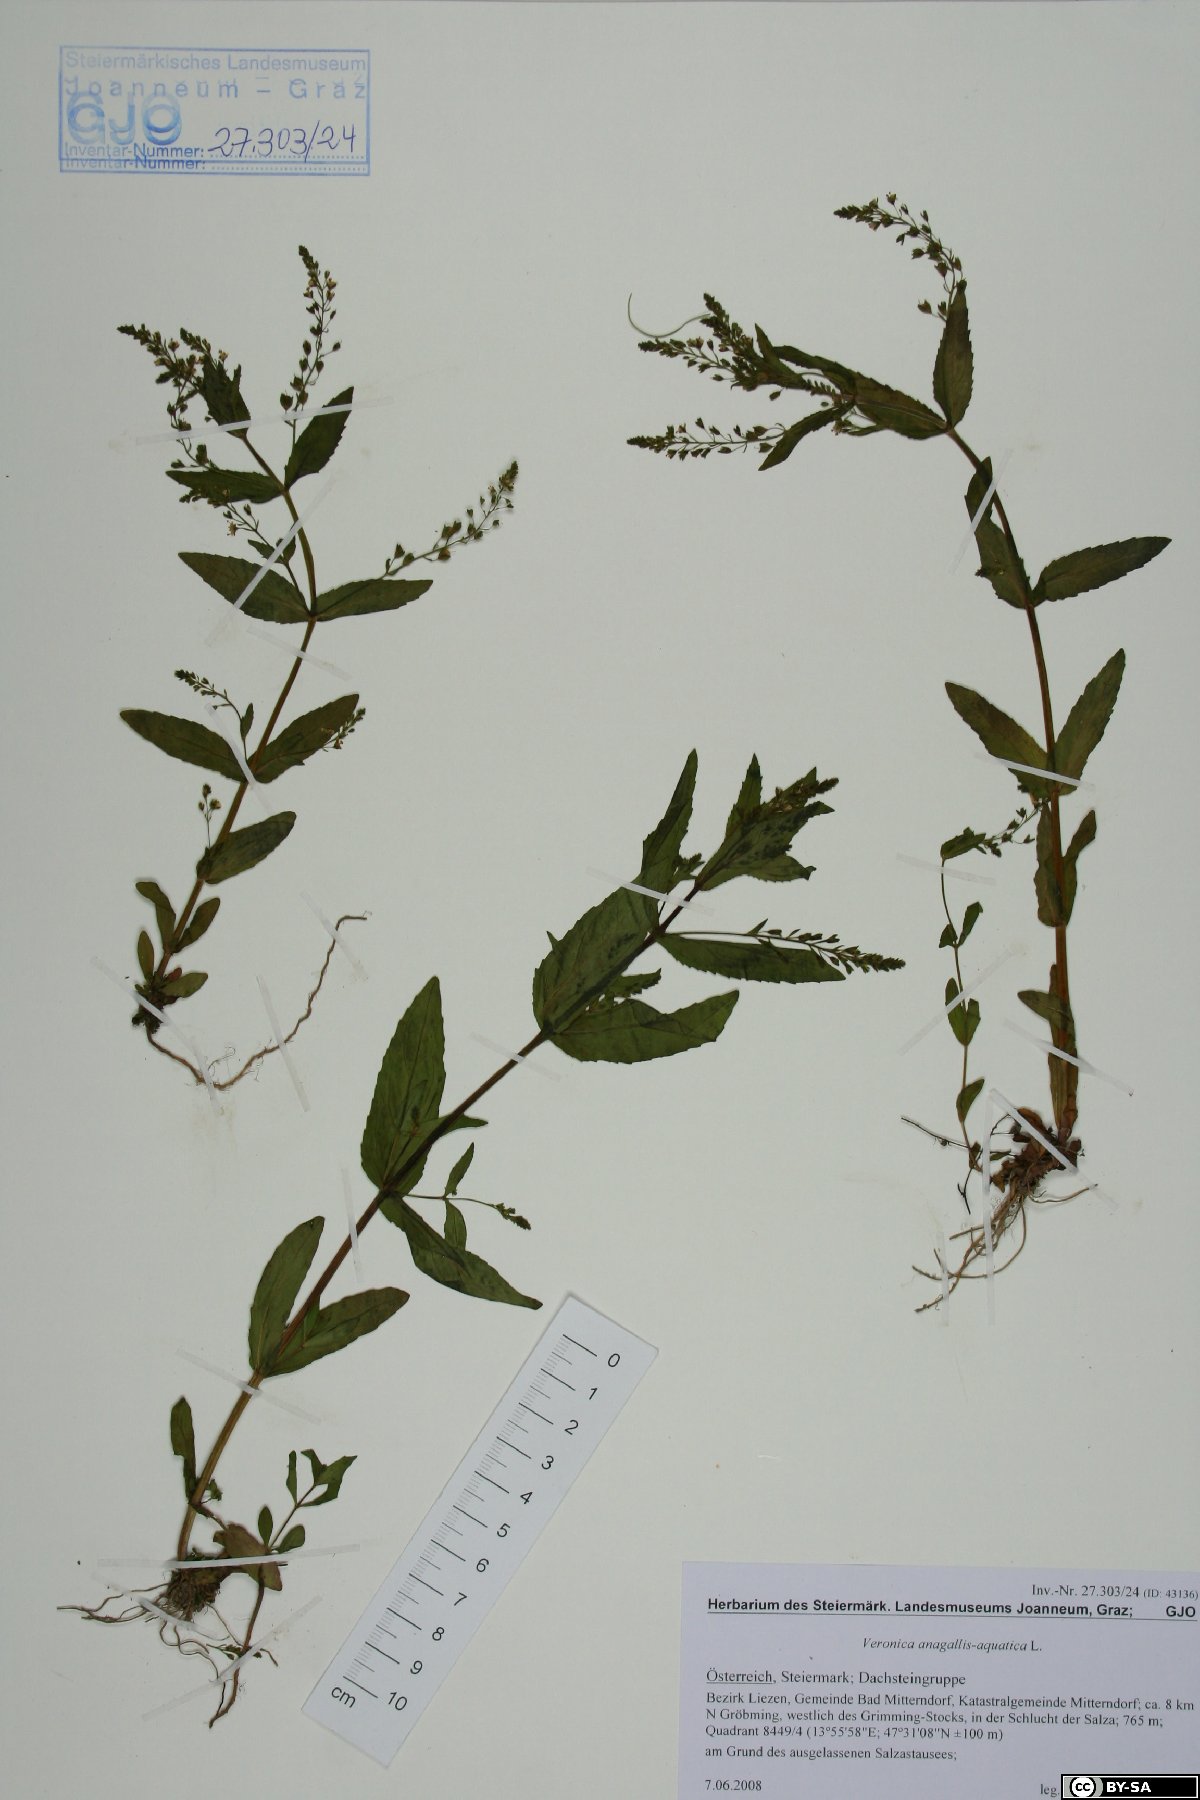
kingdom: Plantae
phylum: Tracheophyta
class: Magnoliopsida
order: Lamiales
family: Plantaginaceae
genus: Veronica
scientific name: Veronica anagallis-aquatica
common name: Water speedwell
